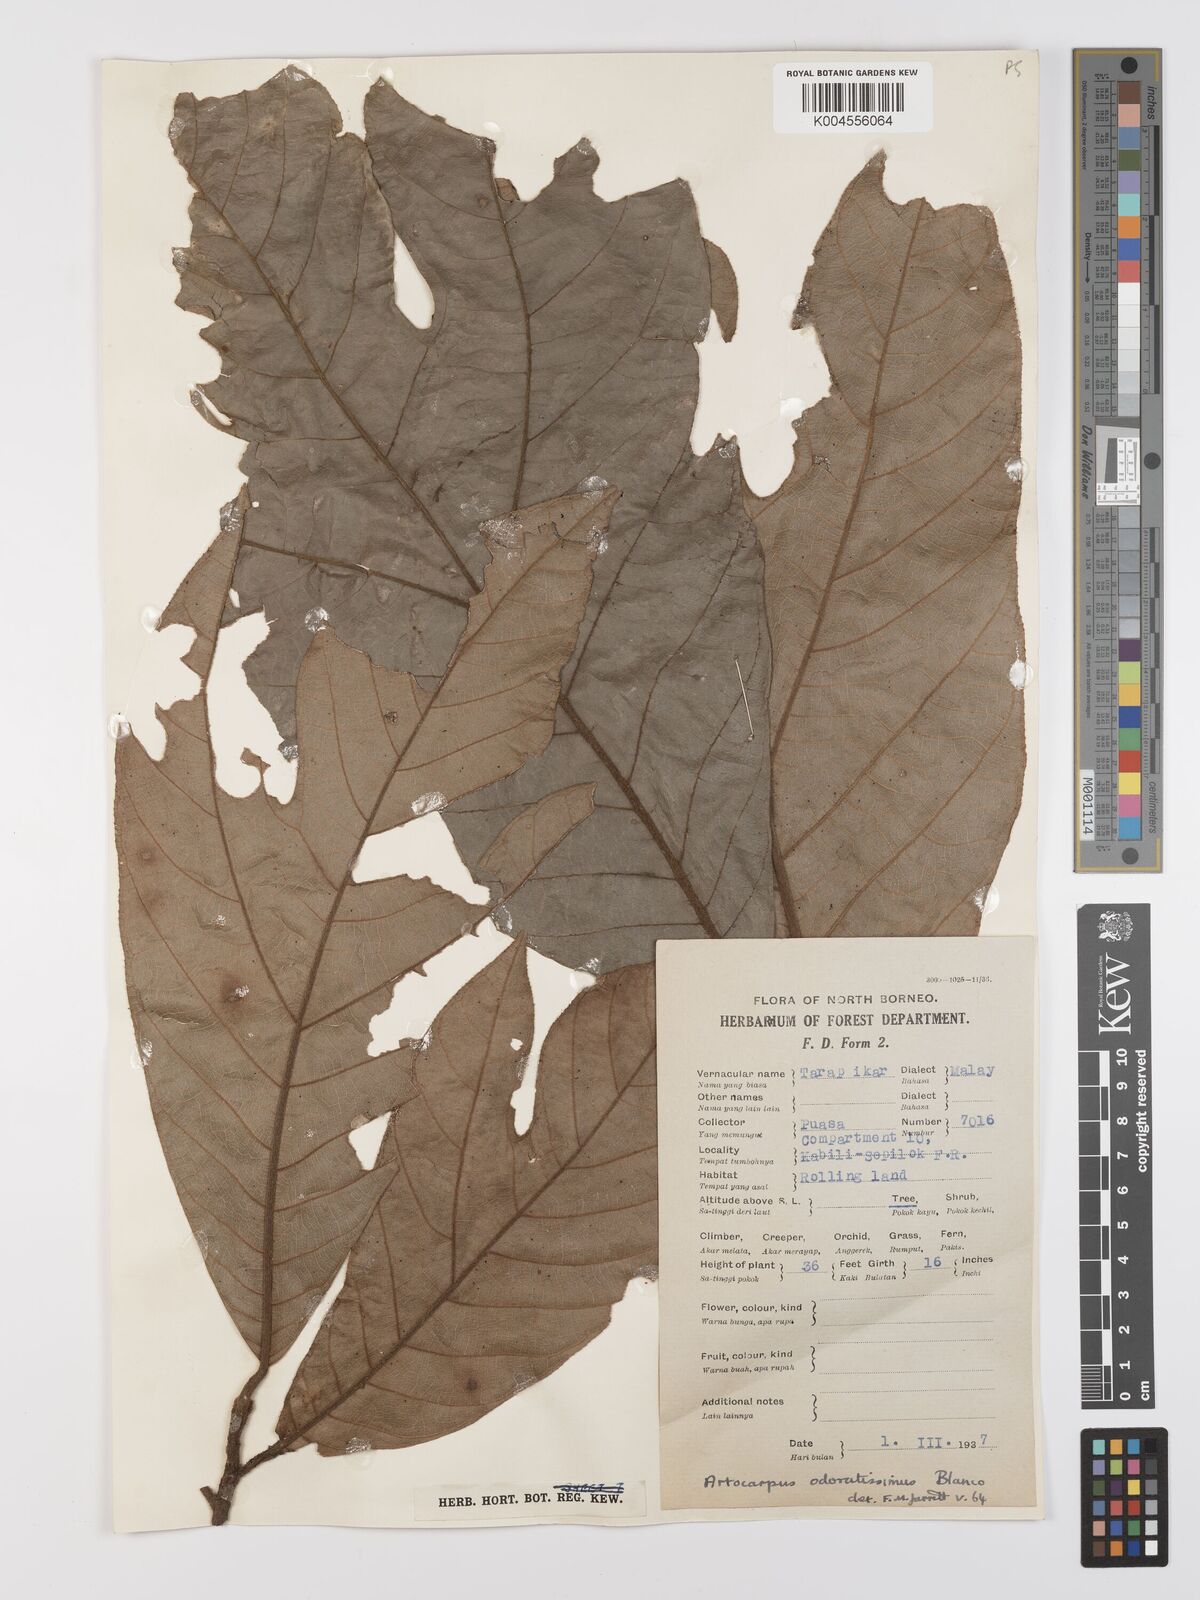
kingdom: Plantae
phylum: Tracheophyta
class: Magnoliopsida
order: Rosales
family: Moraceae
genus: Artocarpus
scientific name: Artocarpus odoratissimus
